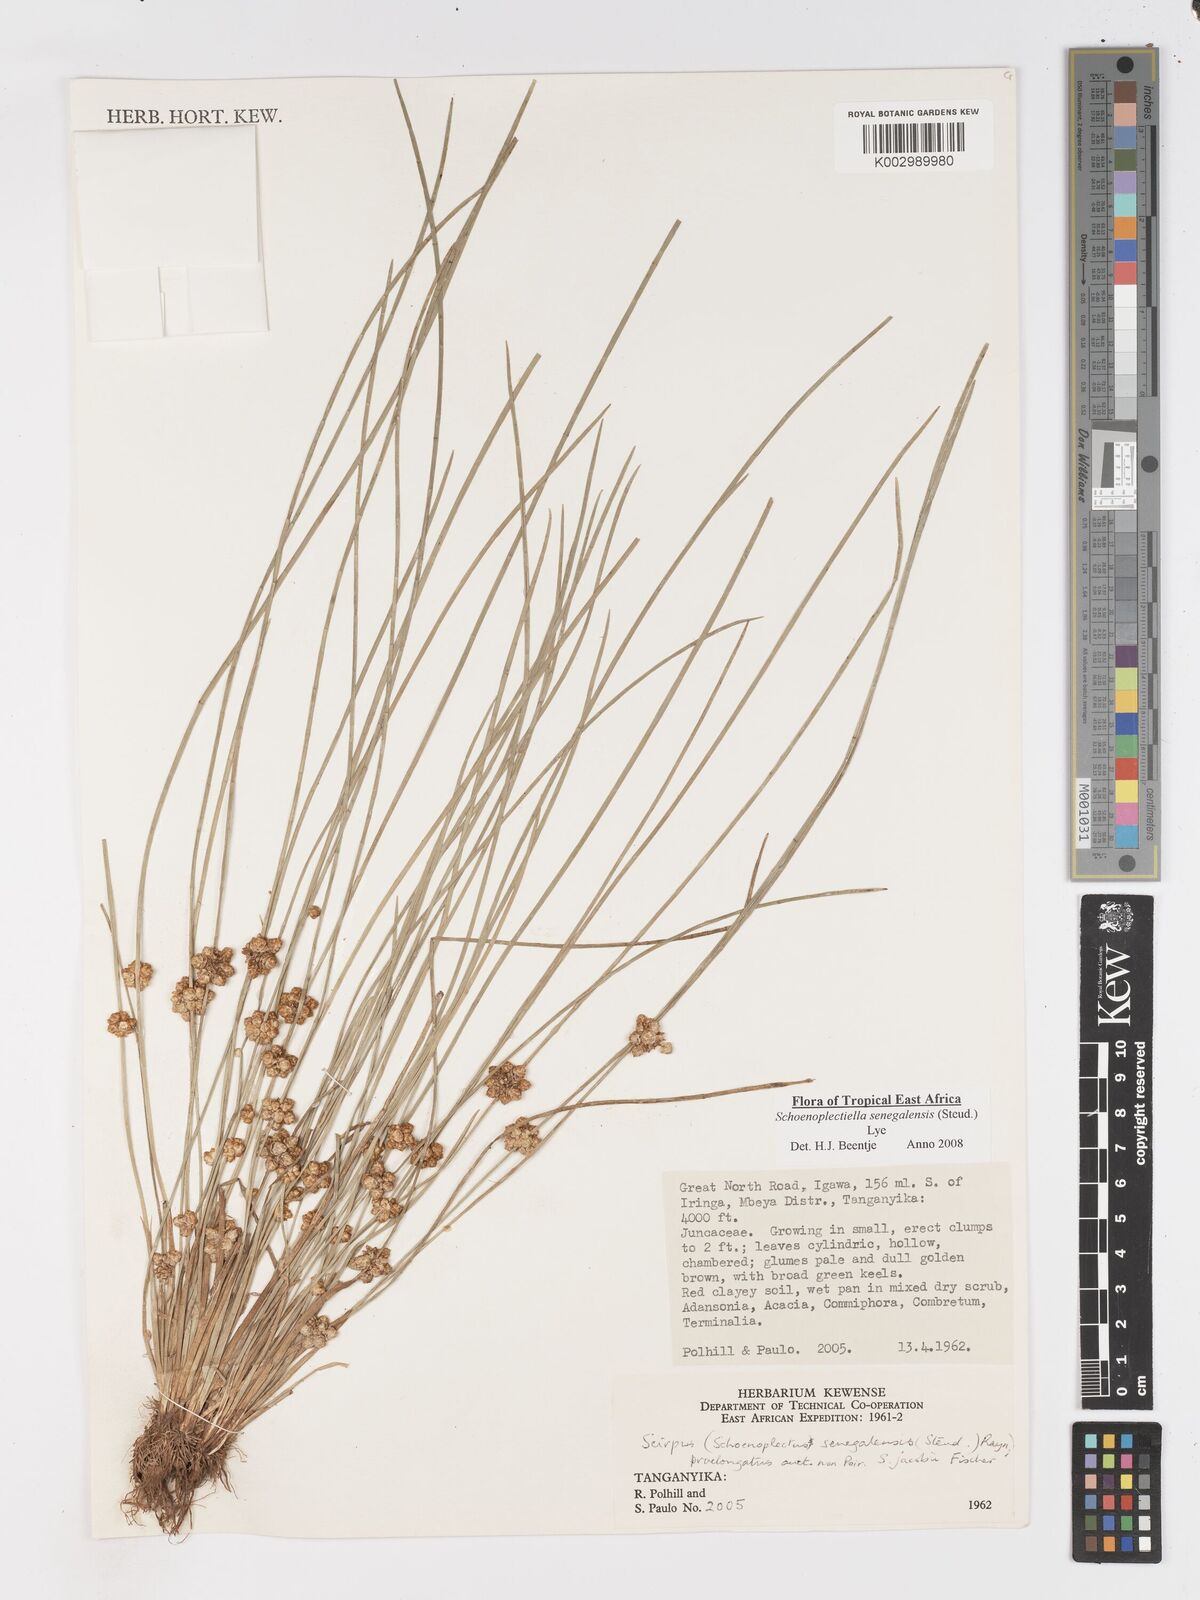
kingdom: Plantae
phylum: Tracheophyta
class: Liliopsida
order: Poales
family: Cyperaceae
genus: Schoenoplectiella
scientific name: Schoenoplectiella senegalensis
